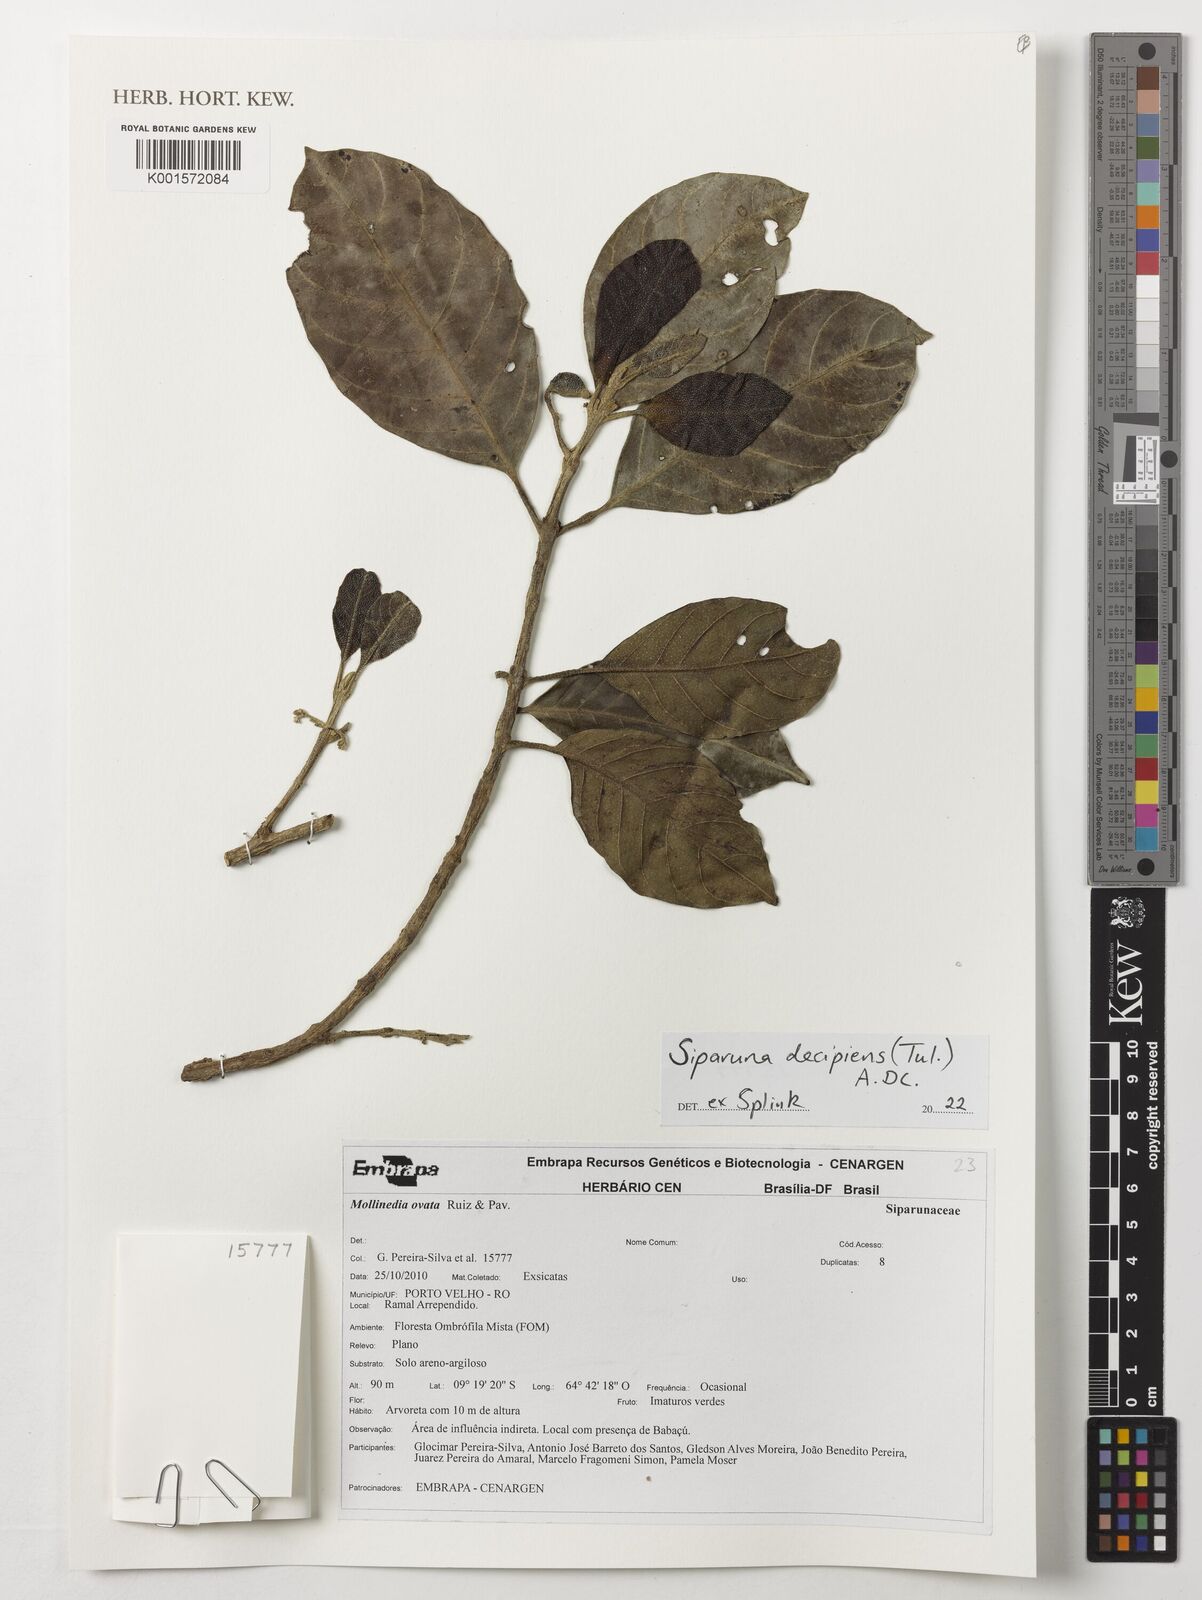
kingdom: Plantae
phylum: Tracheophyta
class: Magnoliopsida
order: Laurales
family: Siparunaceae
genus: Siparuna
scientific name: Siparuna decipiens
